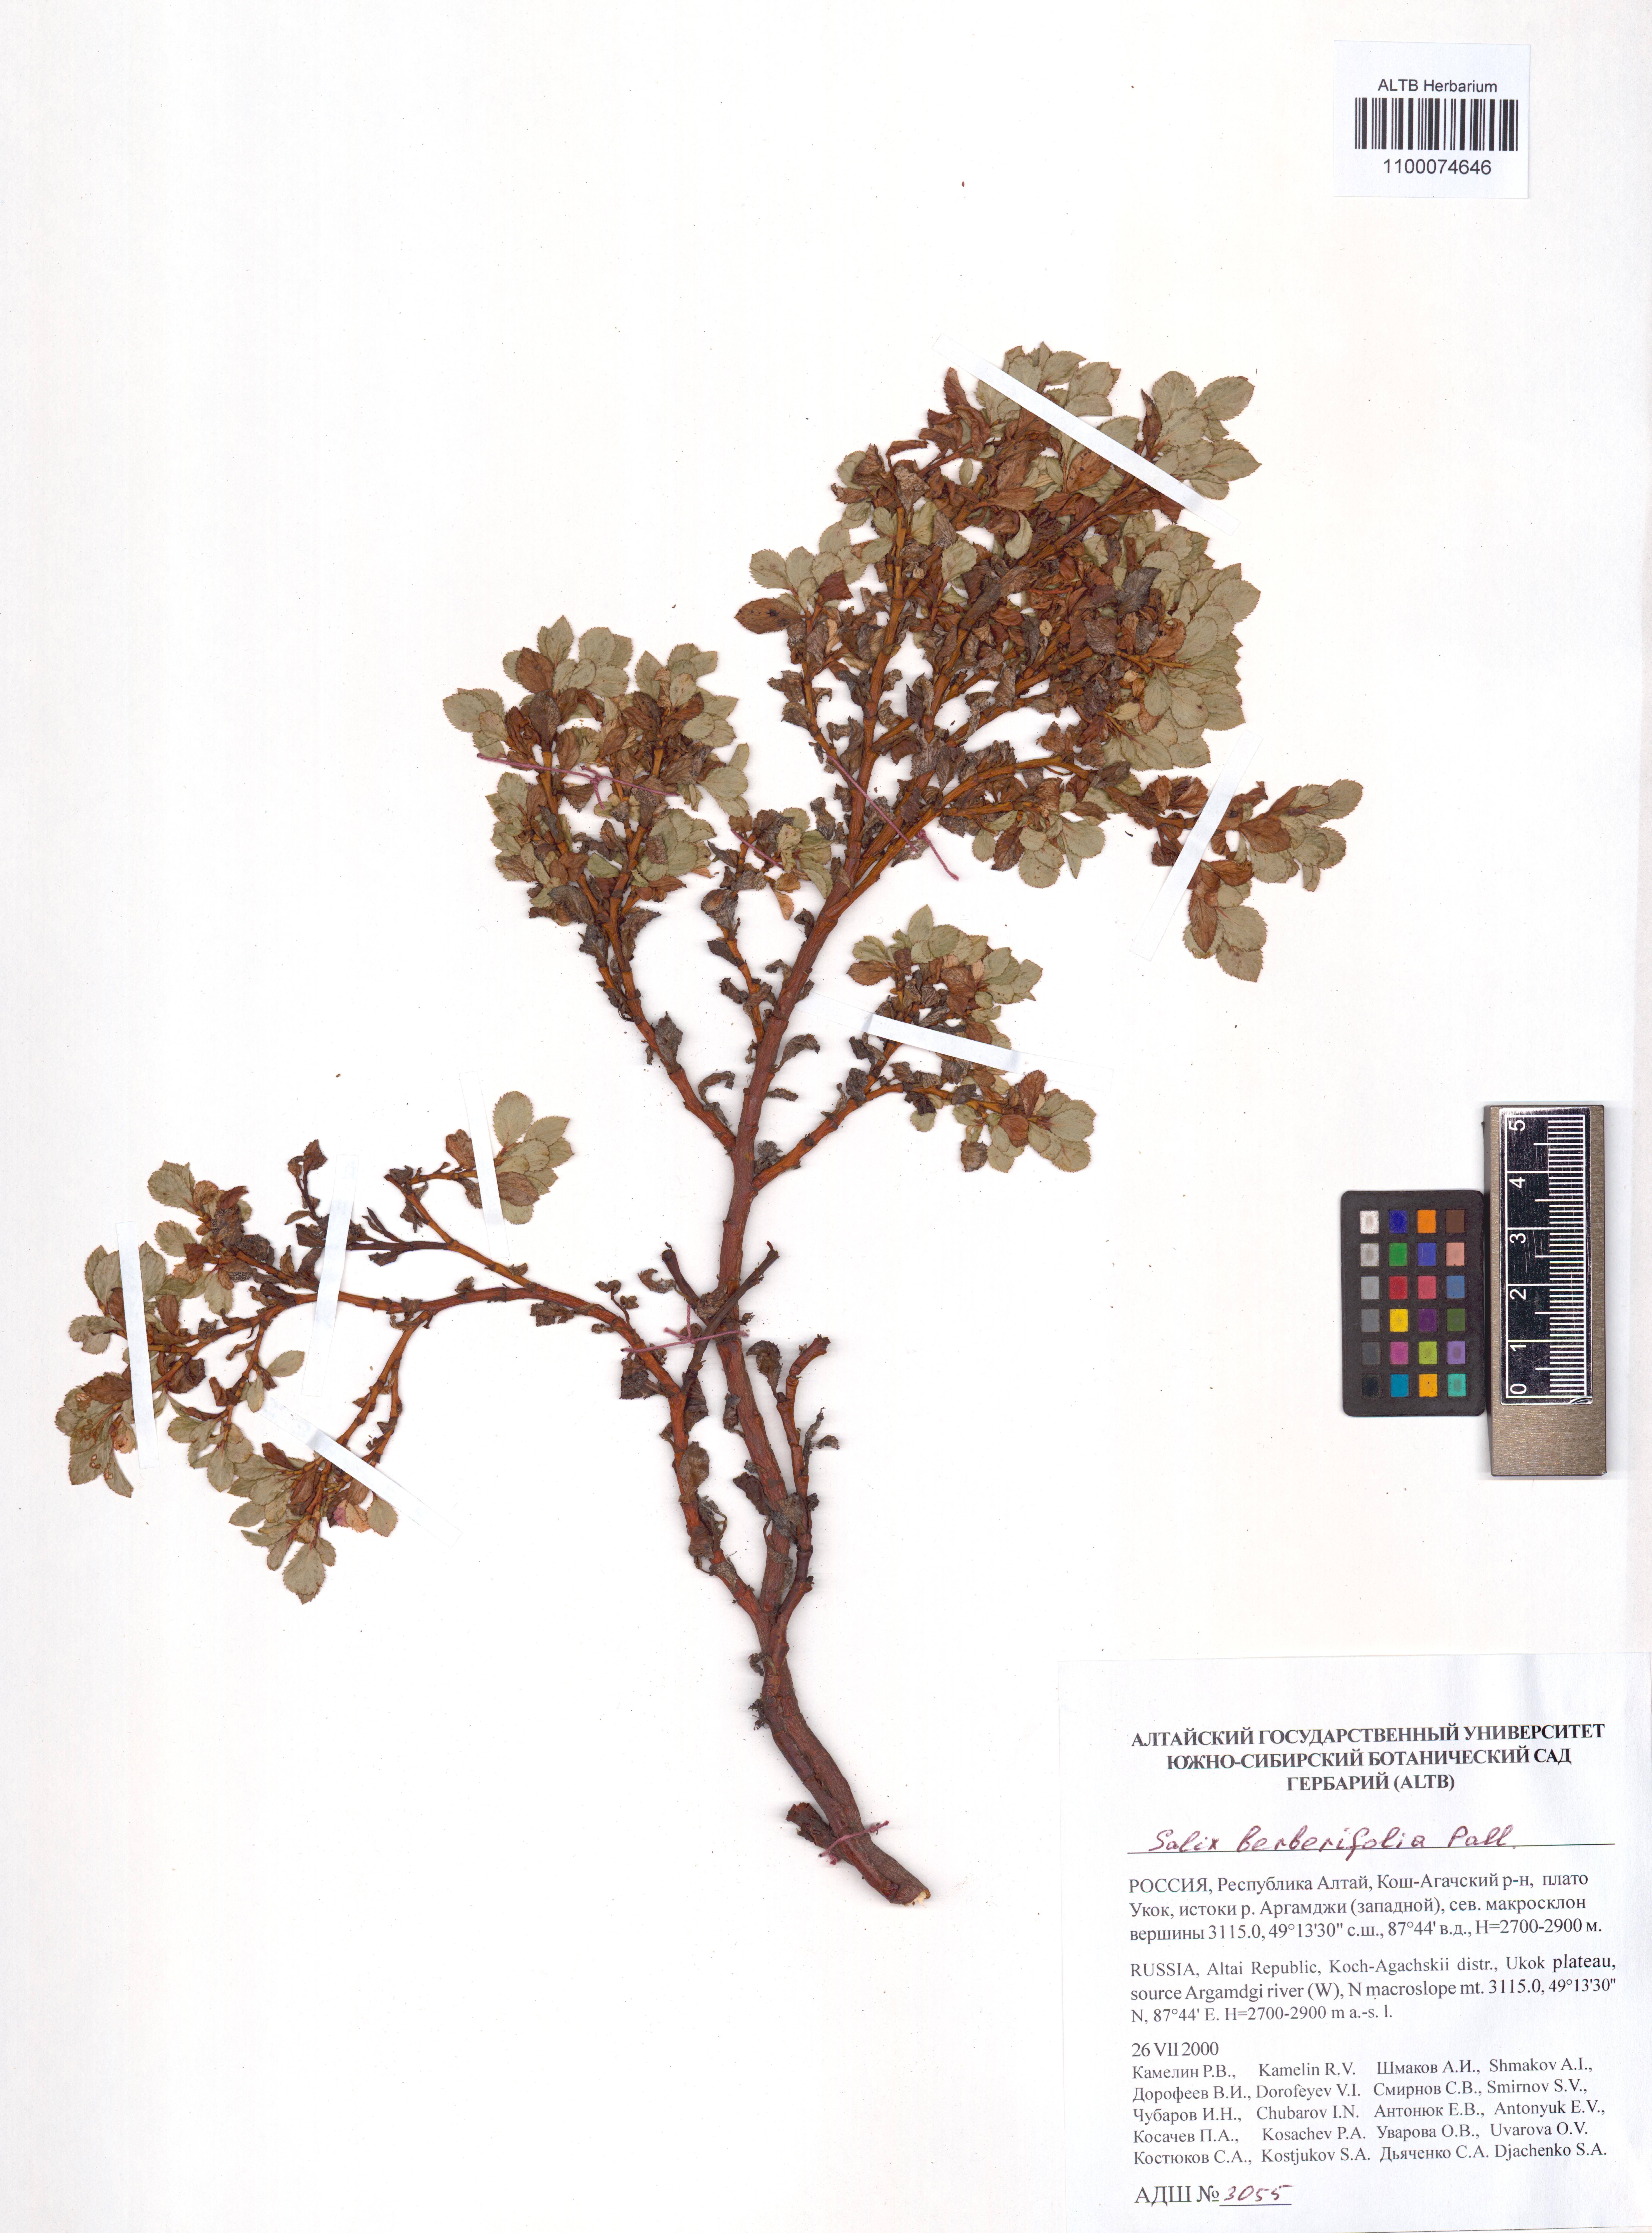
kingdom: Plantae
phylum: Tracheophyta
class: Magnoliopsida
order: Malpighiales
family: Salicaceae
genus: Salix
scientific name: Salix berberifolia
